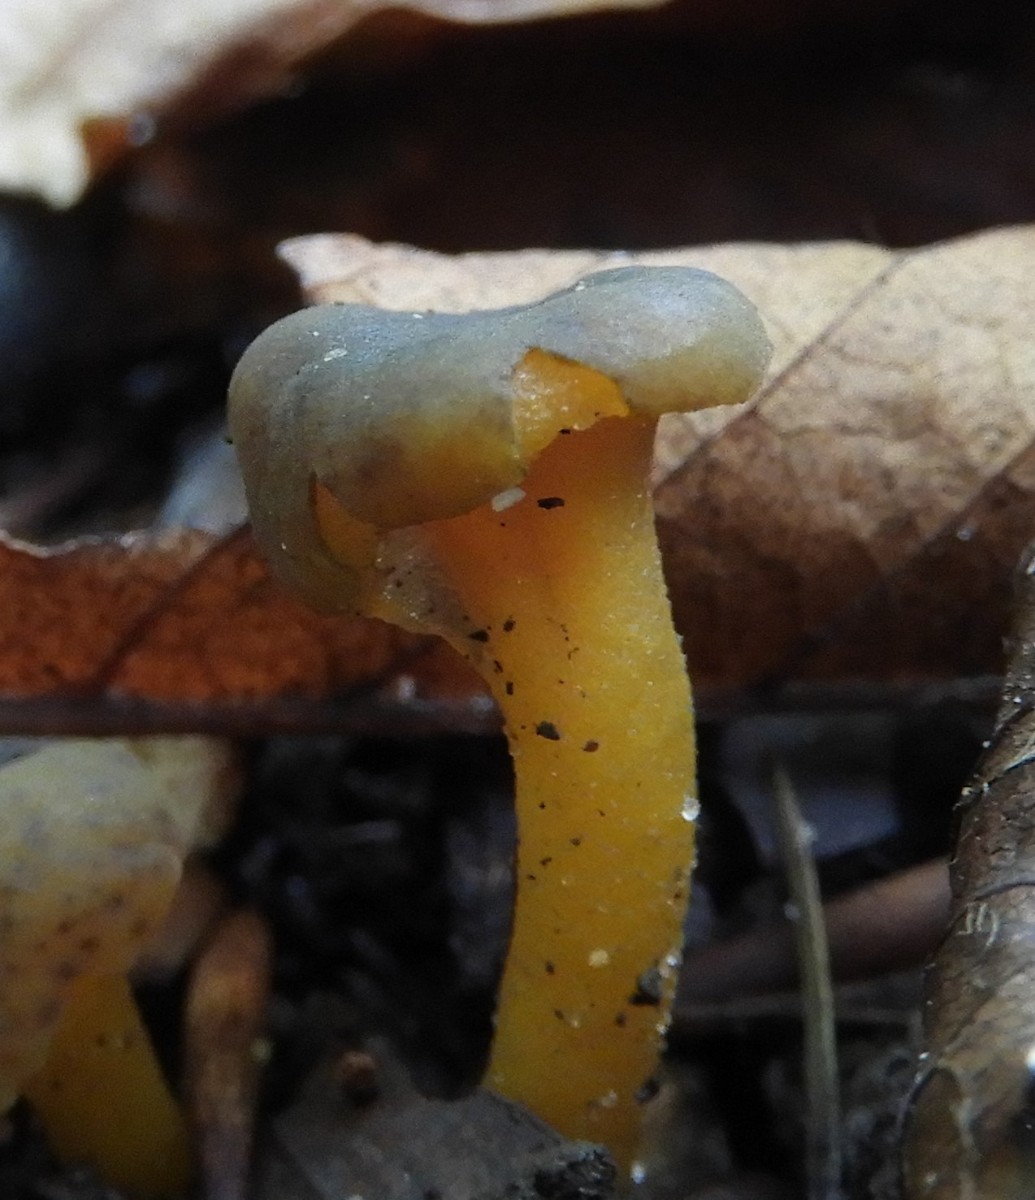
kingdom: Fungi
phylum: Ascomycota
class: Leotiomycetes
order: Leotiales
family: Leotiaceae
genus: Leotia
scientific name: Leotia lubrica
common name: ravsvamp
